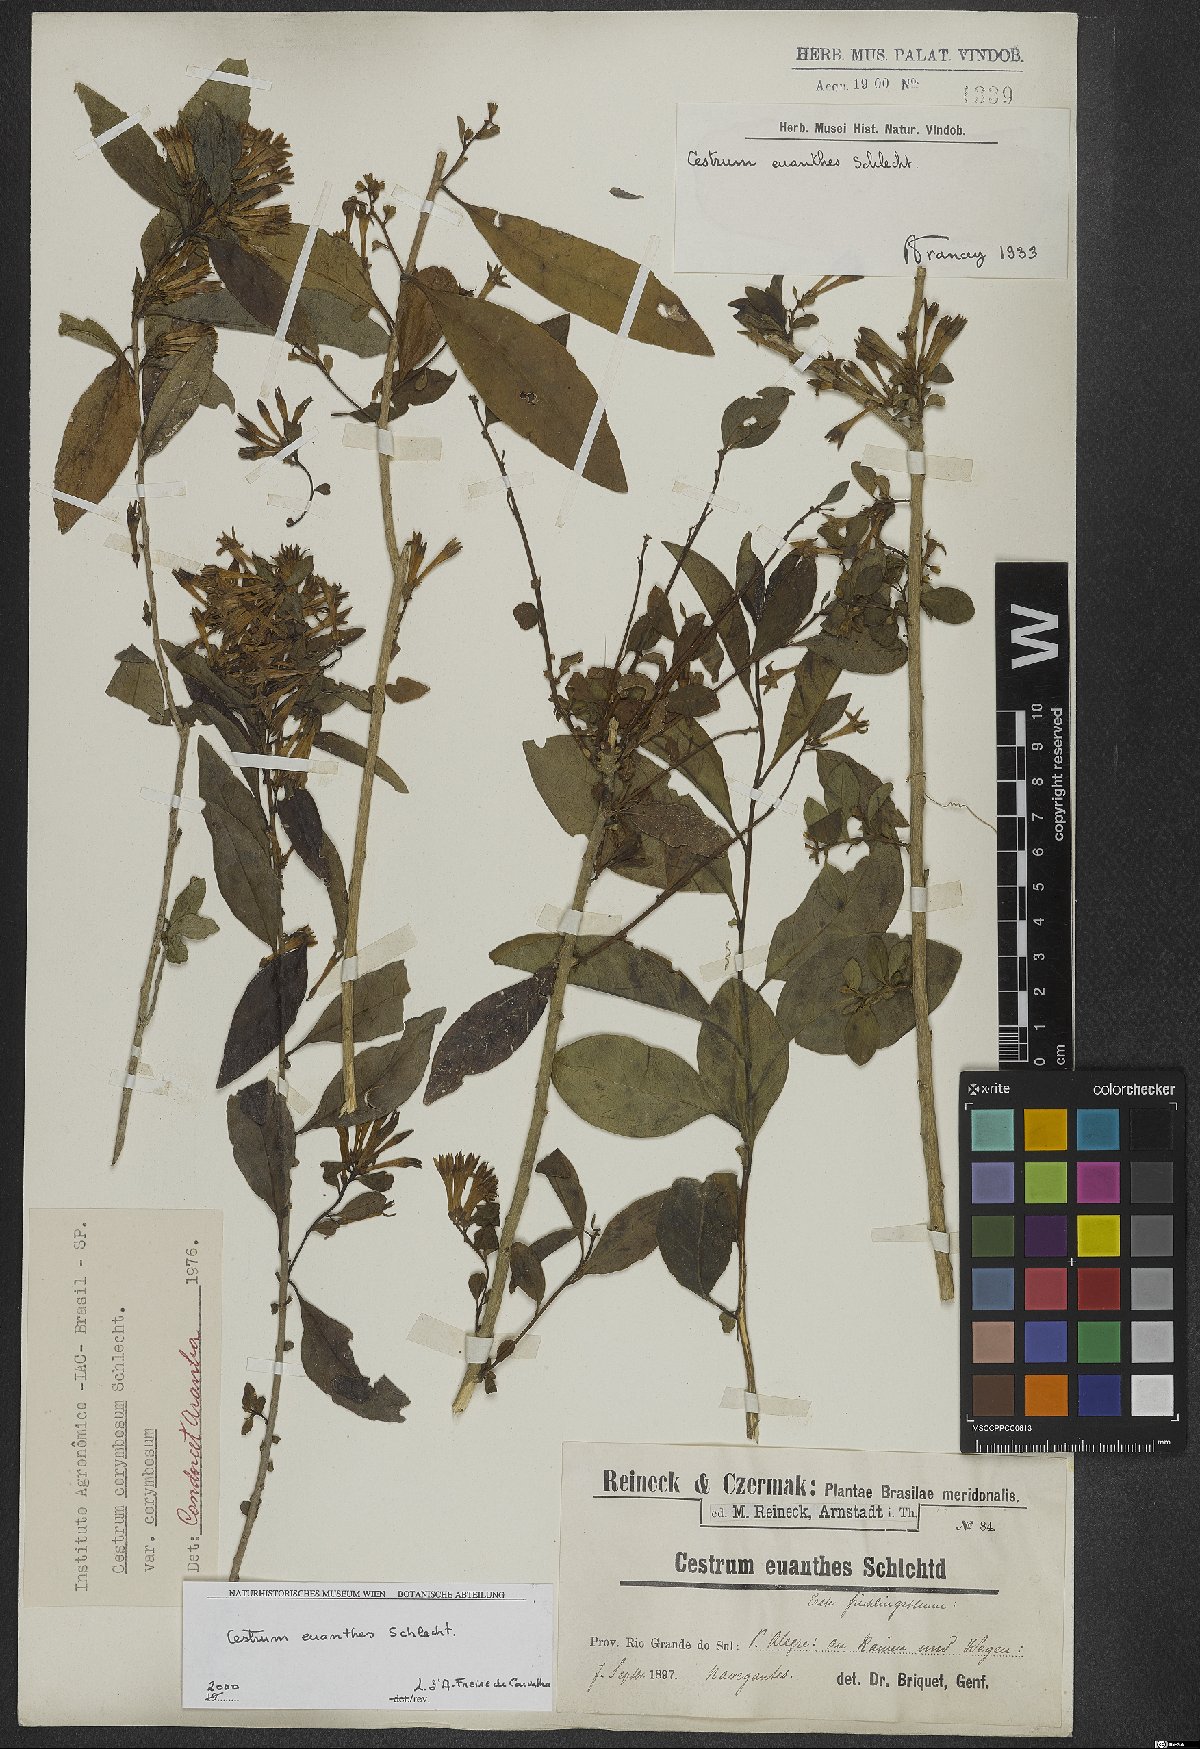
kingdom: Plantae
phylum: Tracheophyta
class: Magnoliopsida
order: Solanales
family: Solanaceae
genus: Cestrum
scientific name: Cestrum euanthes
